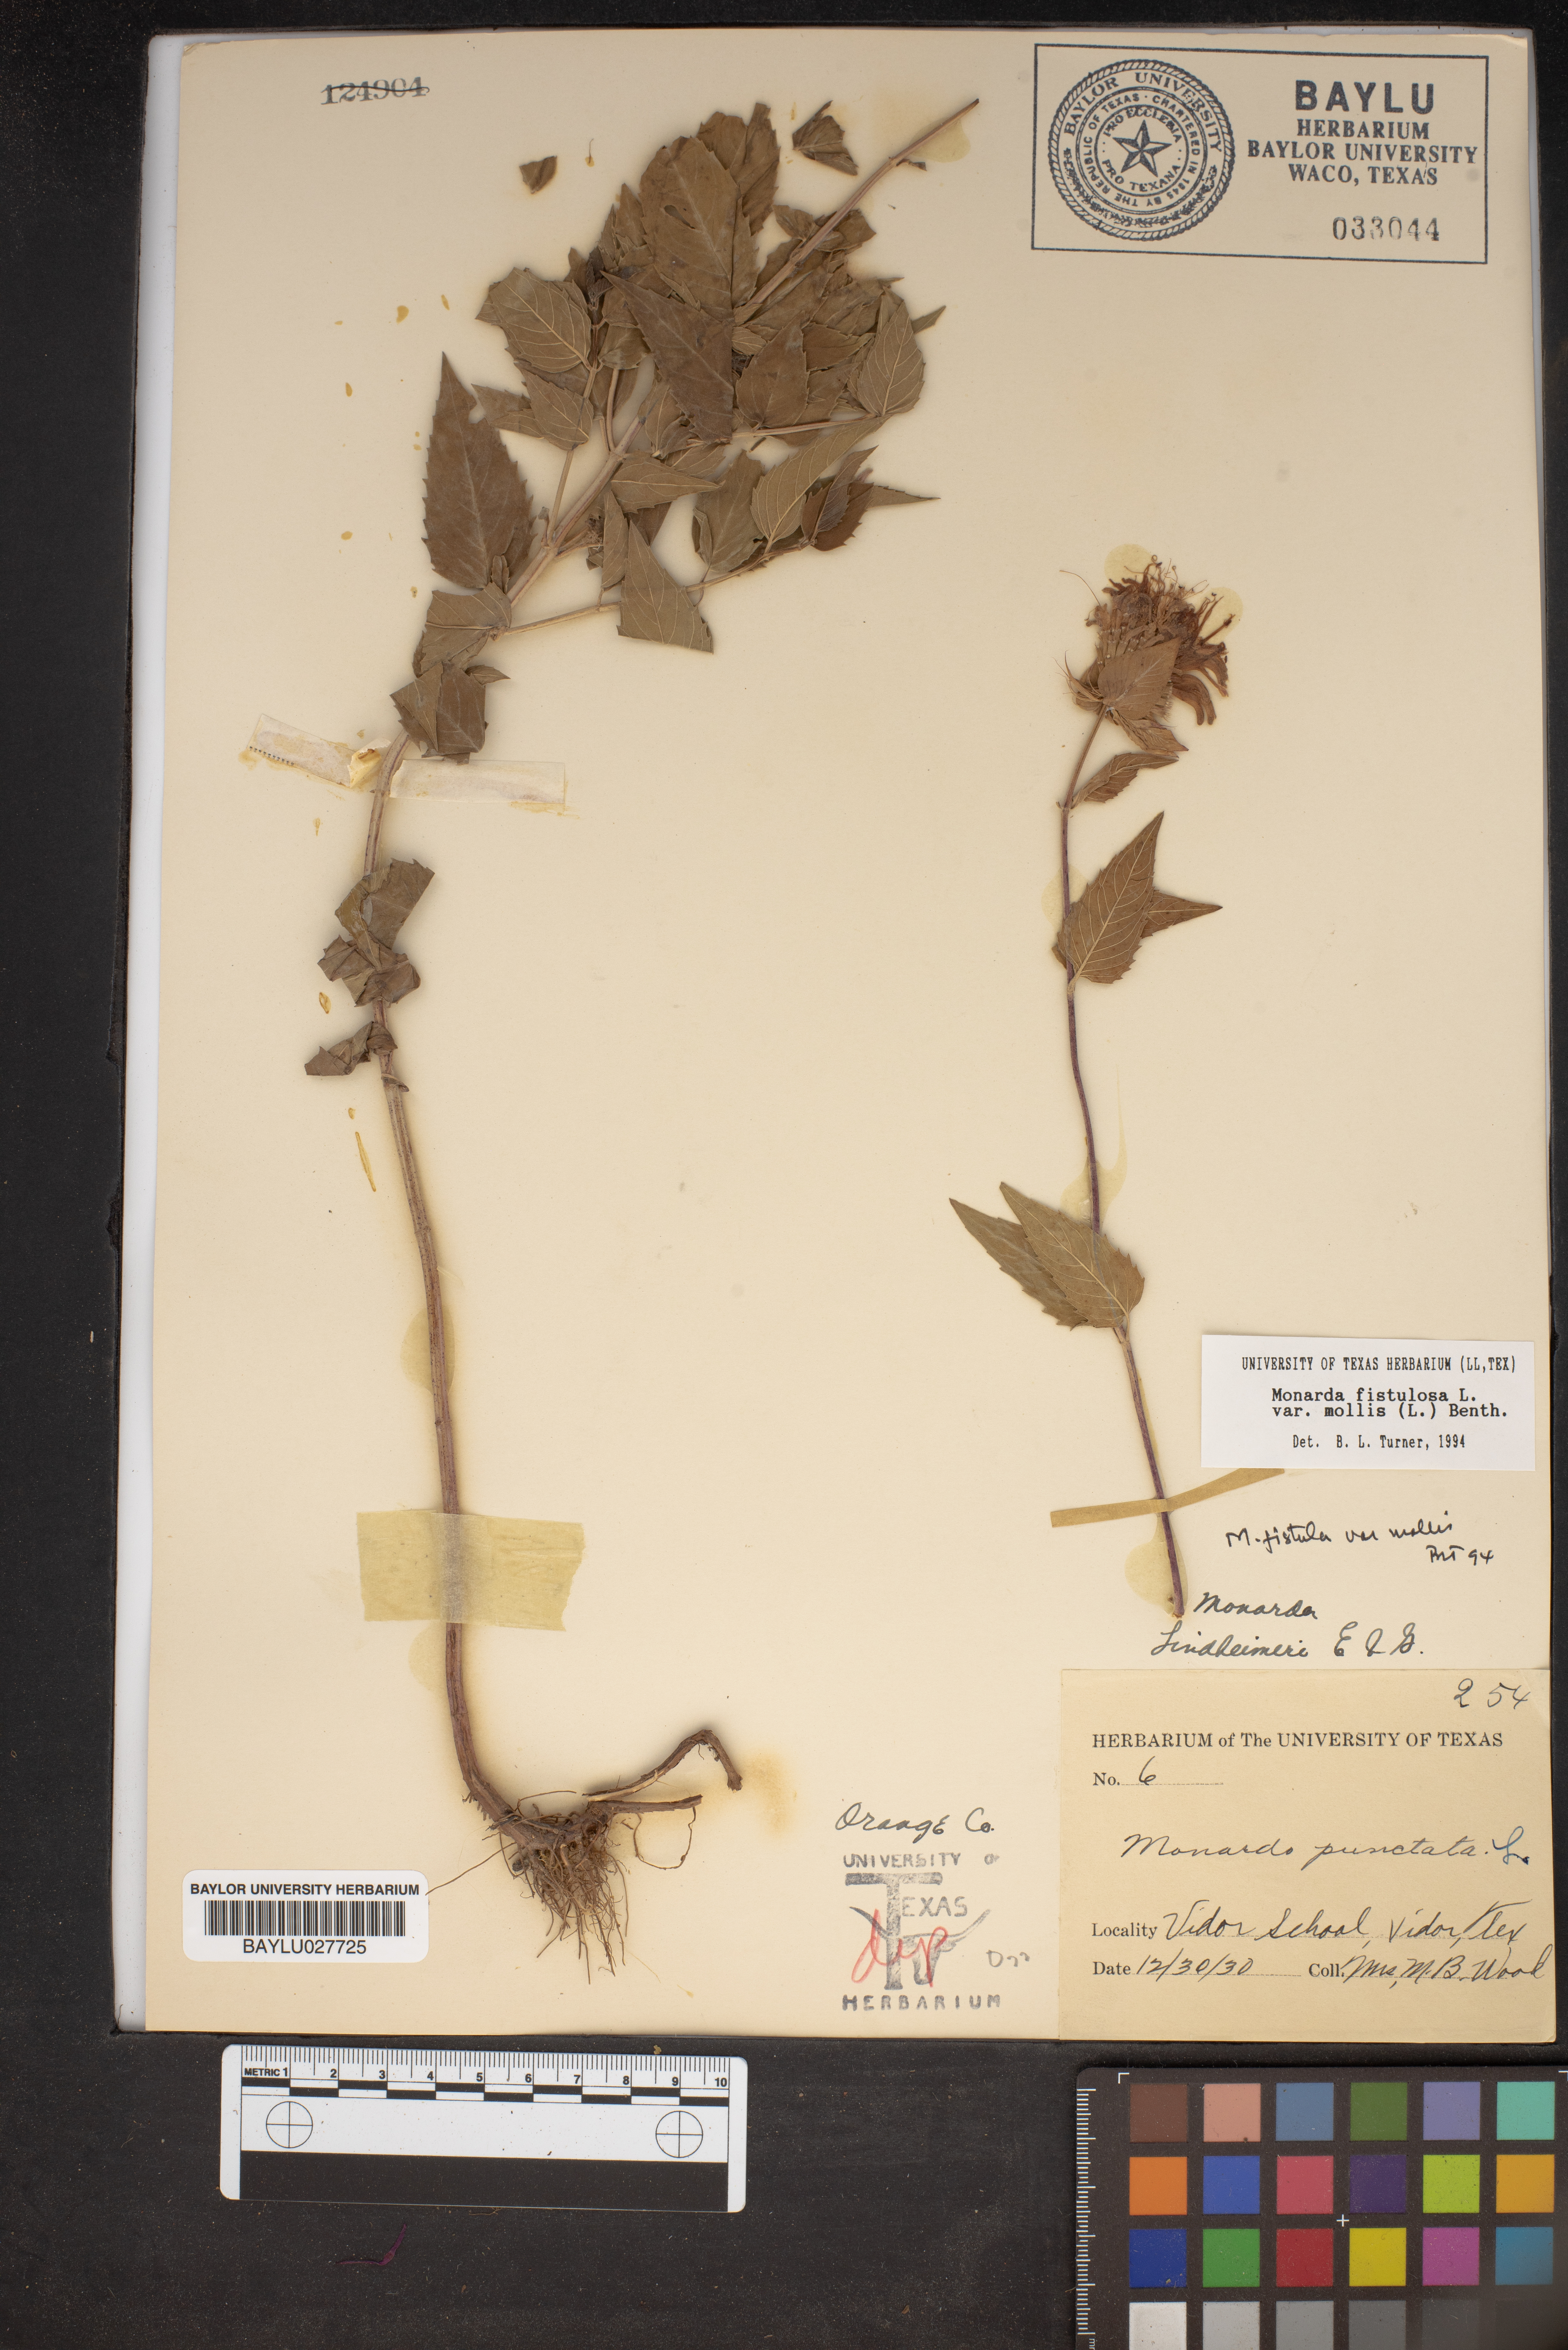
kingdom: Plantae
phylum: Tracheophyta
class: Magnoliopsida
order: Lamiales
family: Lamiaceae
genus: Monarda
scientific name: Monarda punctata
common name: Dotted monarda
